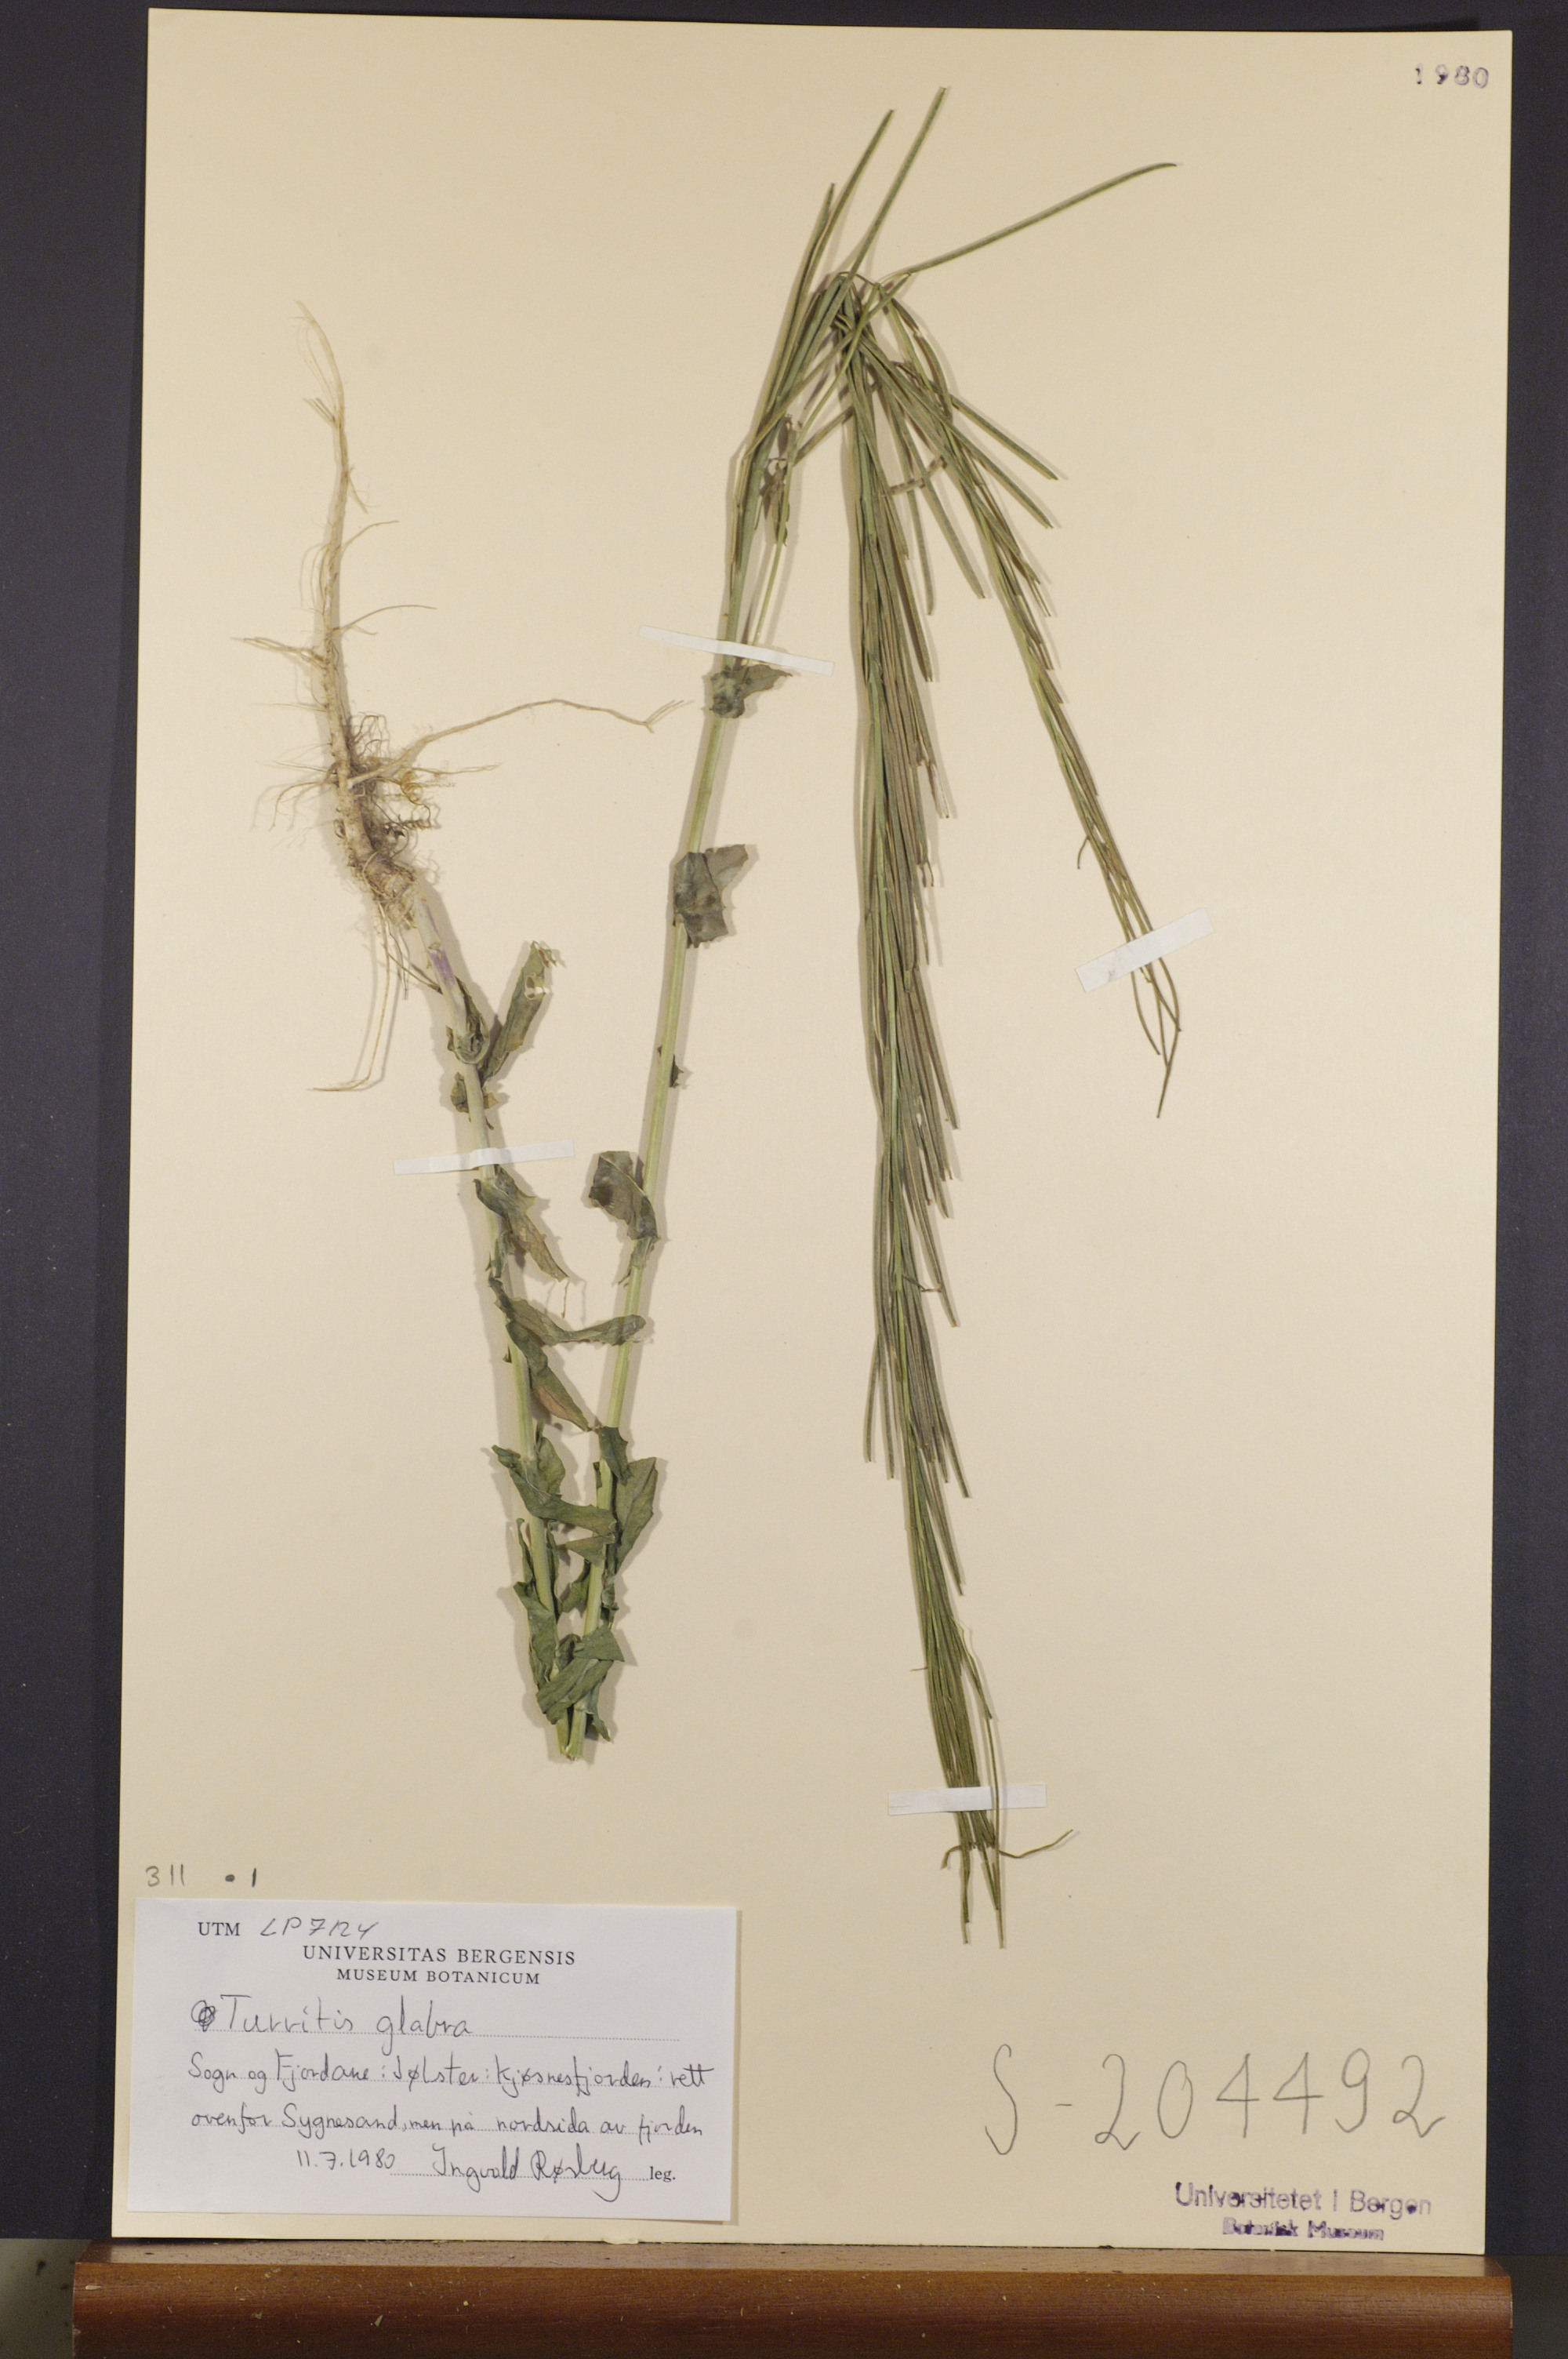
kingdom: Plantae
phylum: Tracheophyta
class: Magnoliopsida
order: Brassicales
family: Brassicaceae
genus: Turritis
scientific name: Turritis glabra
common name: Tower rockcress
